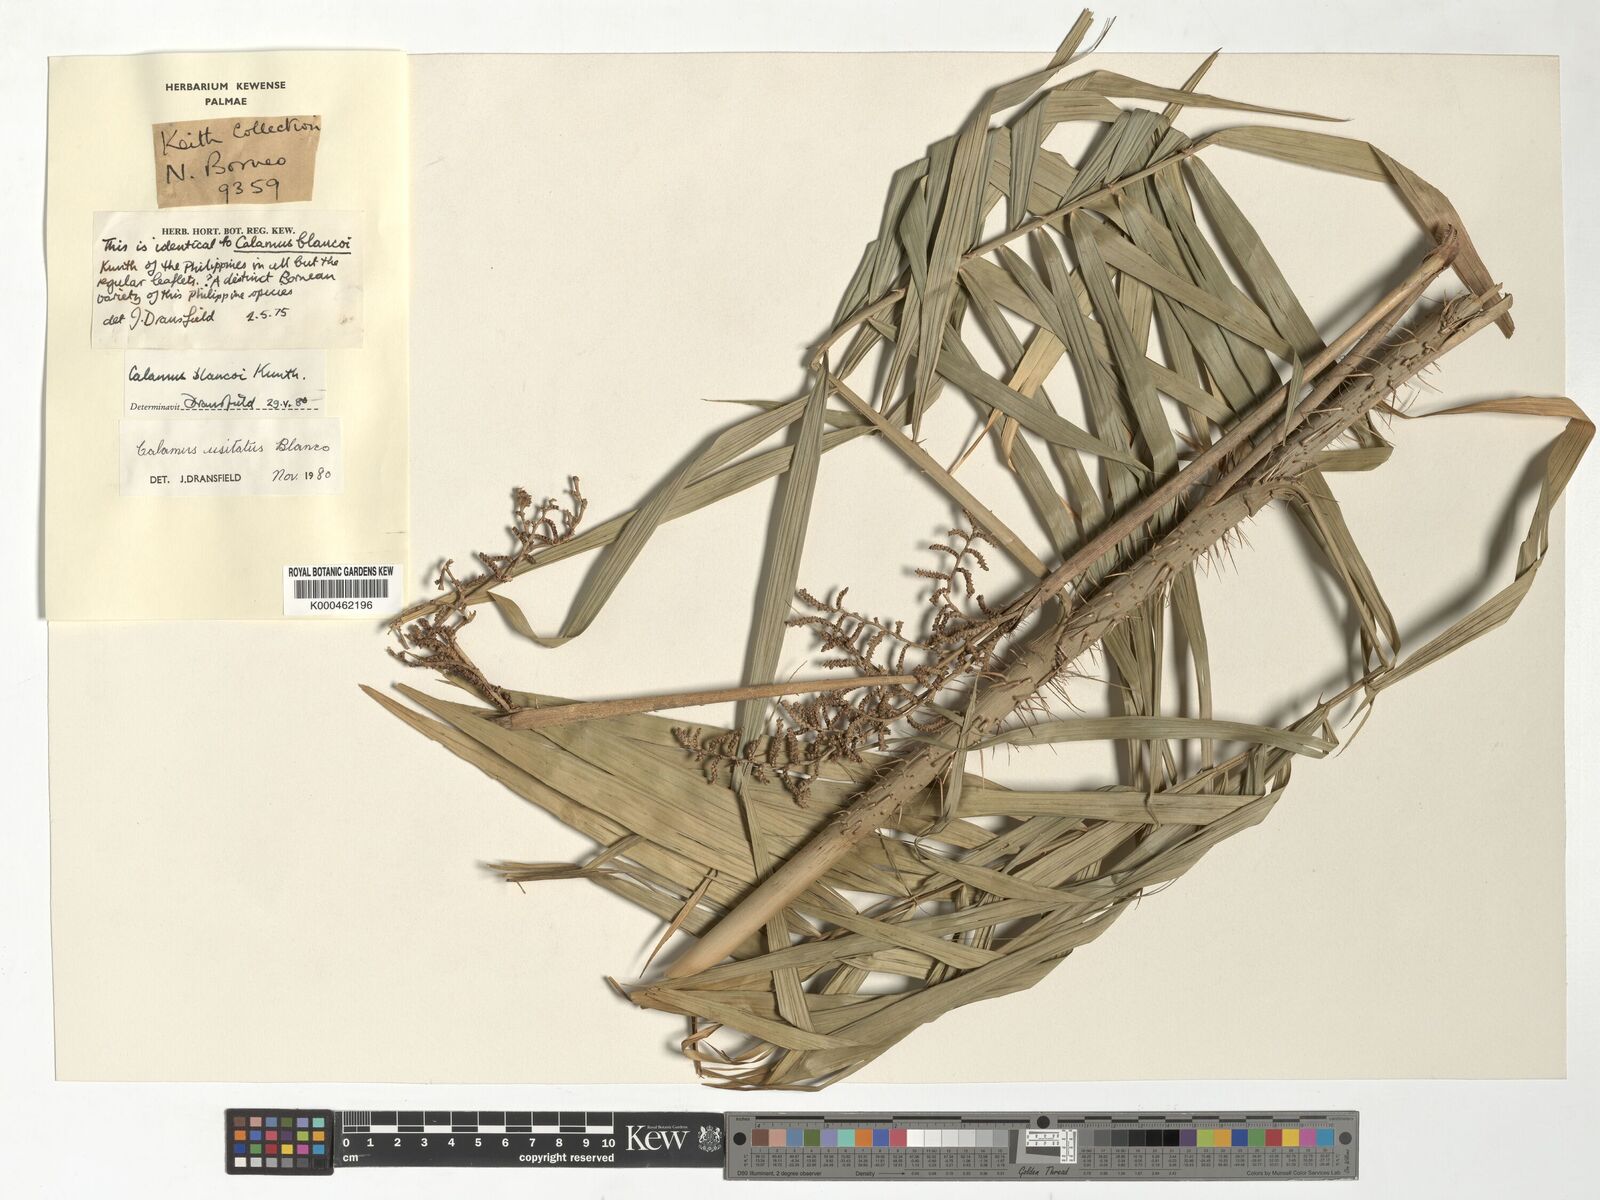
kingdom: Plantae
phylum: Tracheophyta
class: Liliopsida
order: Arecales
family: Arecaceae
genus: Calamus
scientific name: Calamus usitatus
